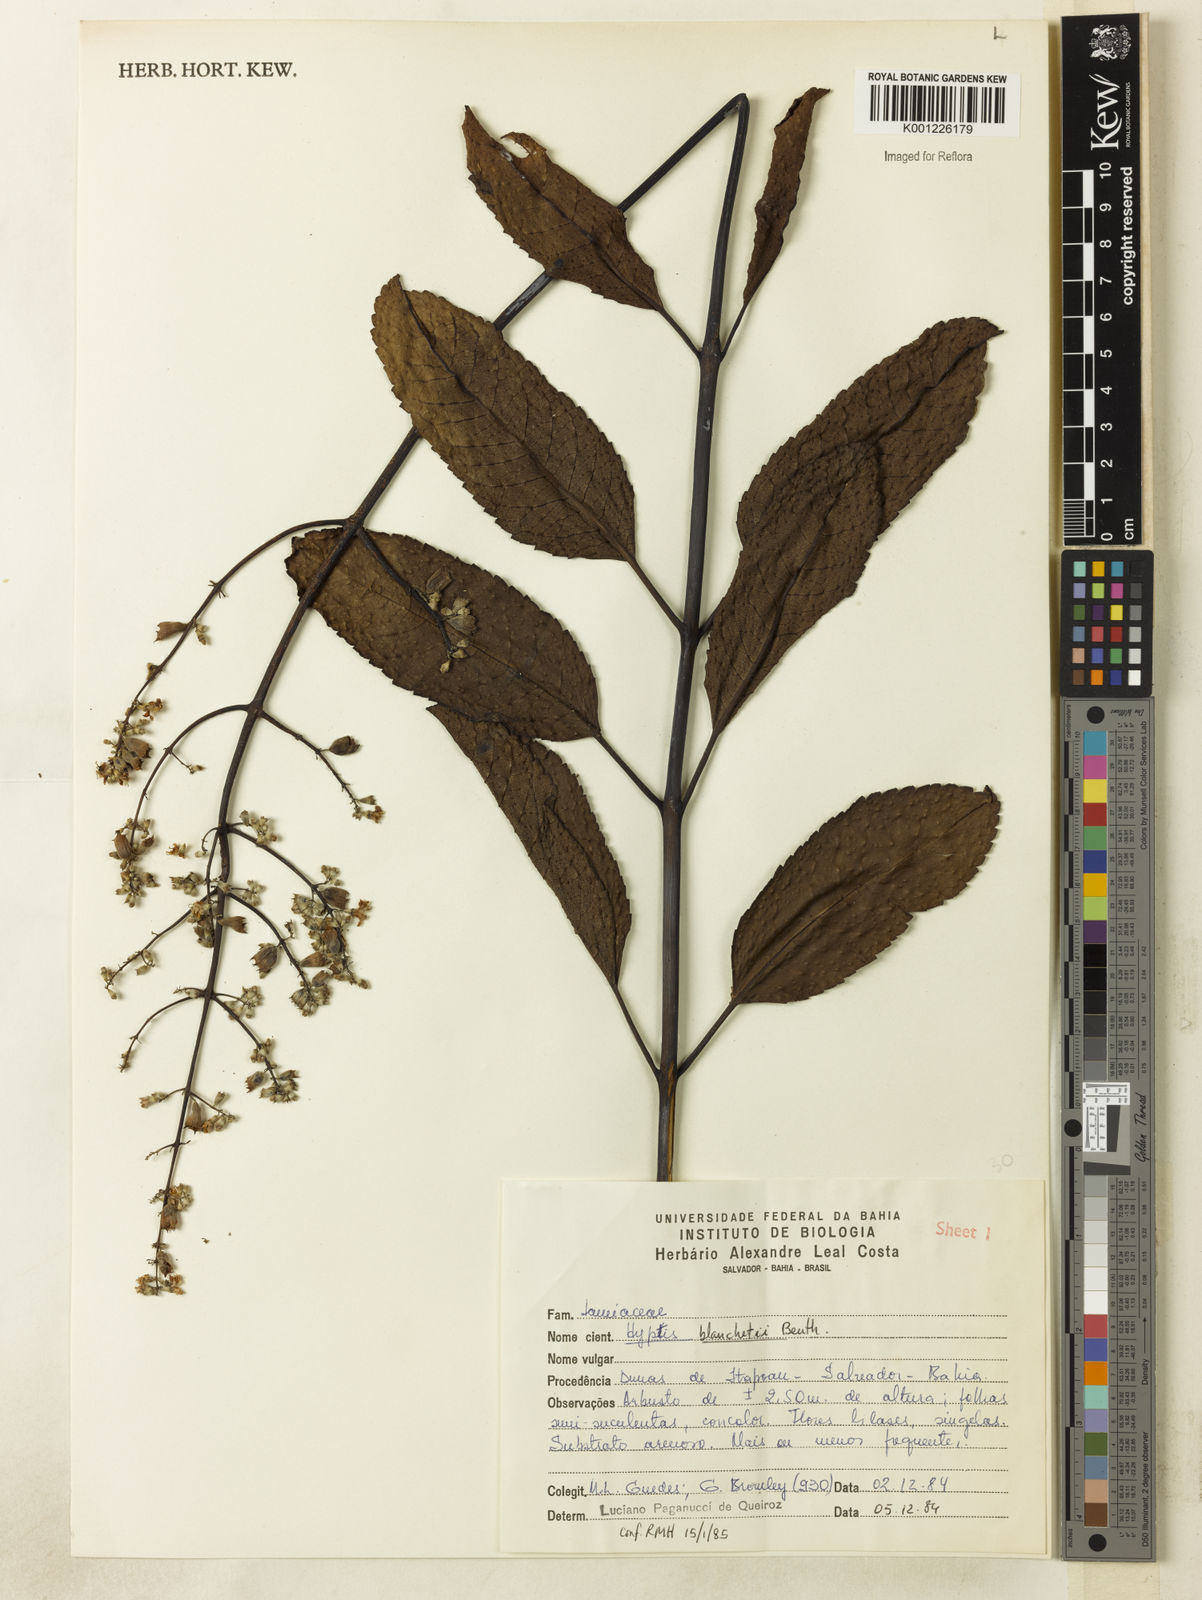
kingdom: Plantae
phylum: Tracheophyta
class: Magnoliopsida
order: Lamiales
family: Lamiaceae
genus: Eriope
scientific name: Eriope blanchetii
